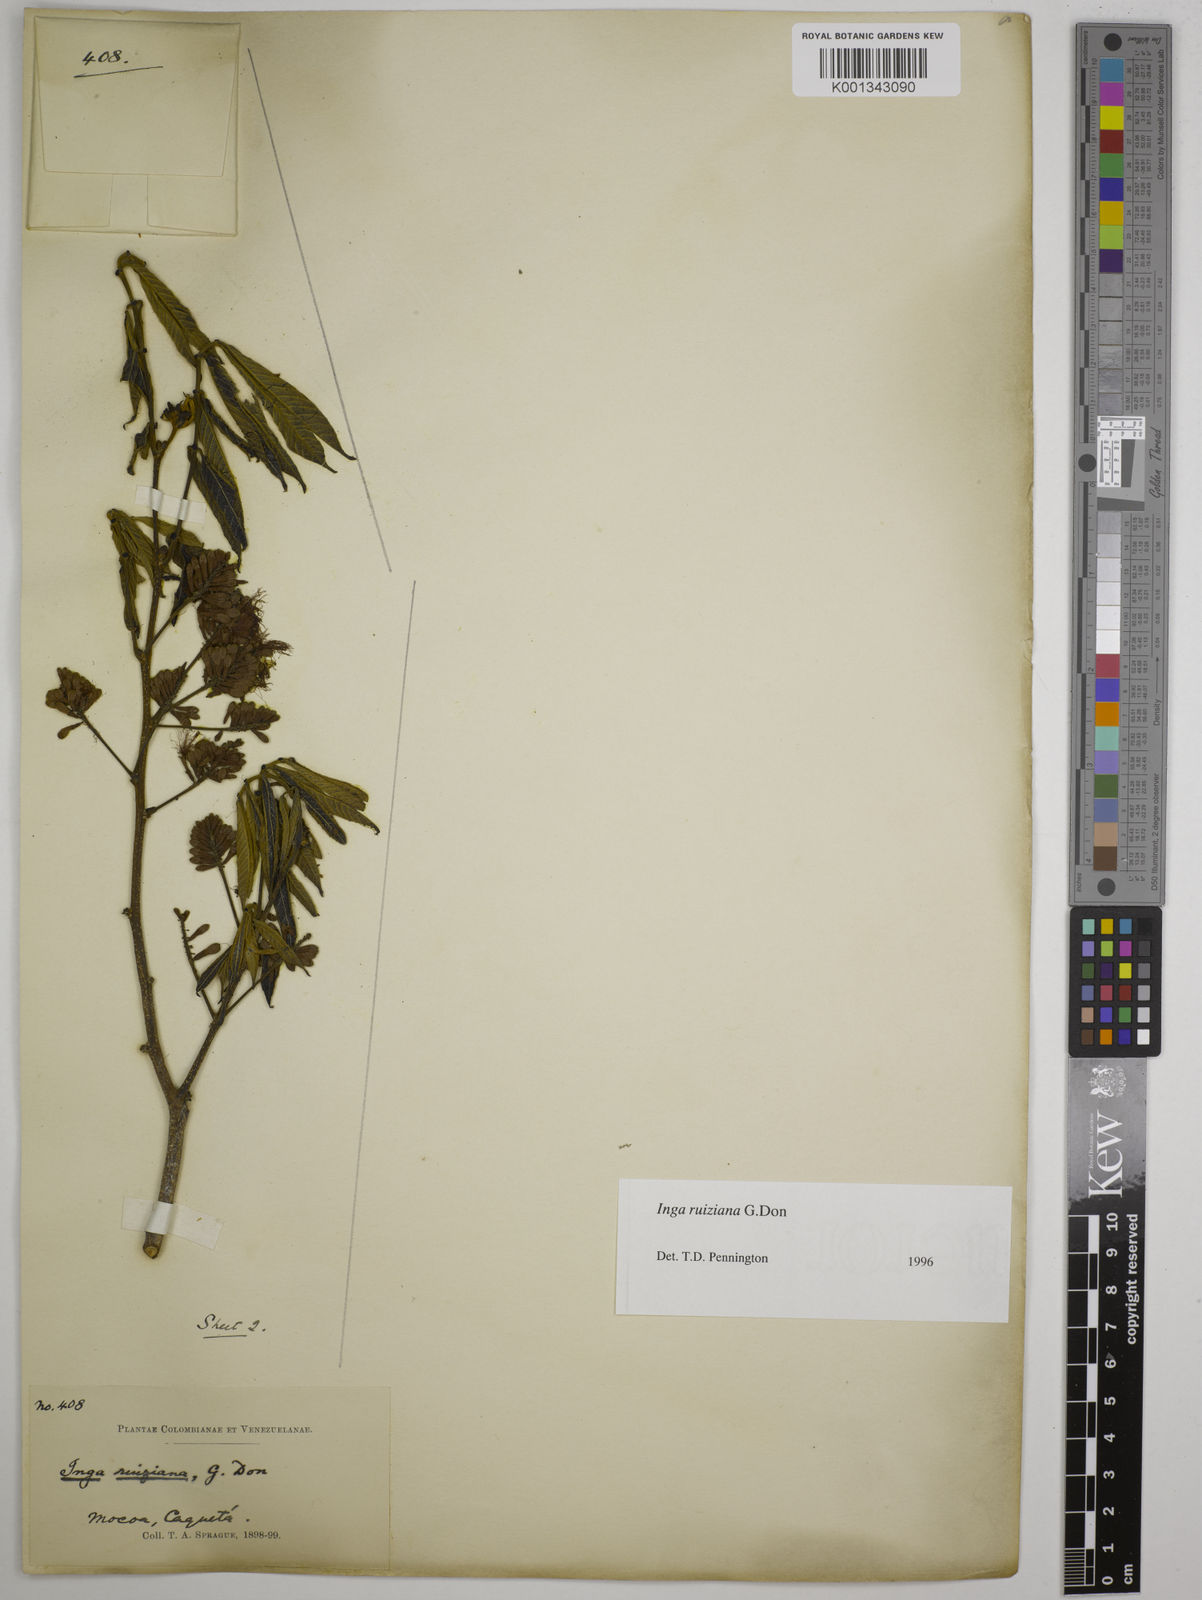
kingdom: Plantae
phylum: Tracheophyta
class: Magnoliopsida
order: Fabales
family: Fabaceae
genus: Inga
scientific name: Inga ruiziana
